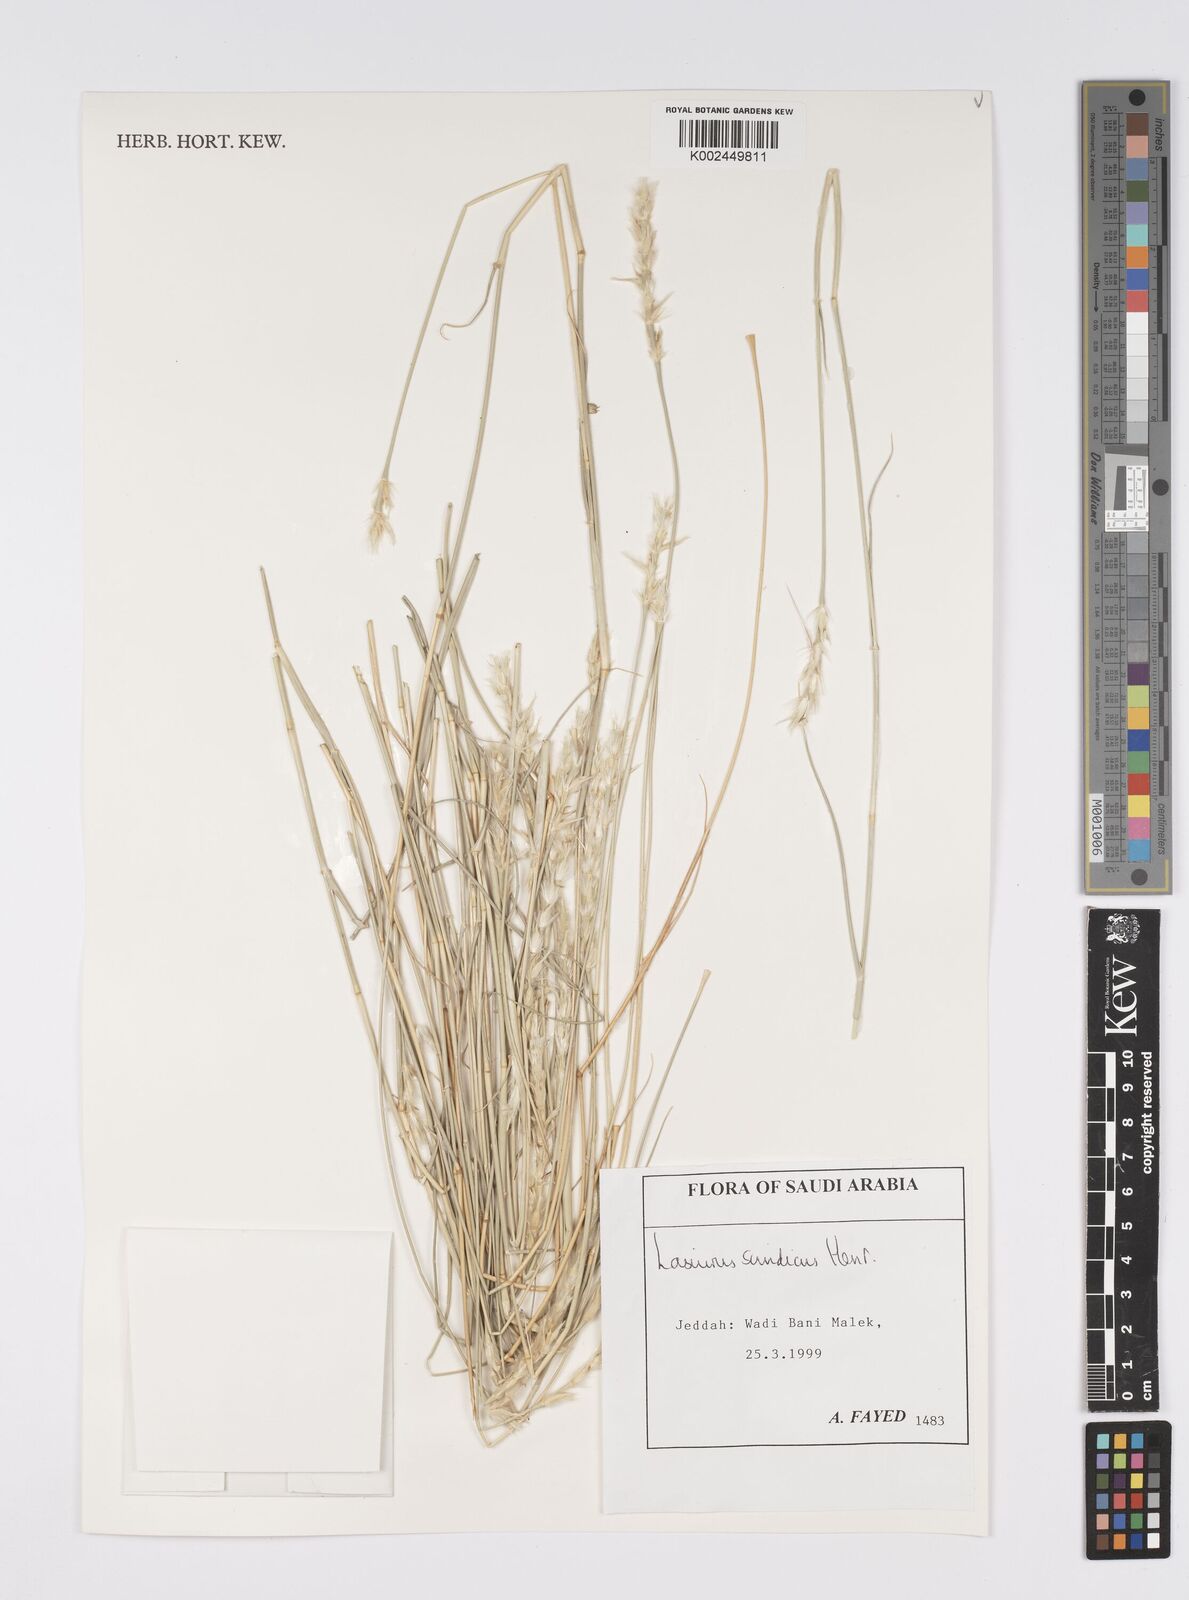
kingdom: Plantae
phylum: Tracheophyta
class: Liliopsida
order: Poales
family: Poaceae
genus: Lasiurus
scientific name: Lasiurus scindicus
